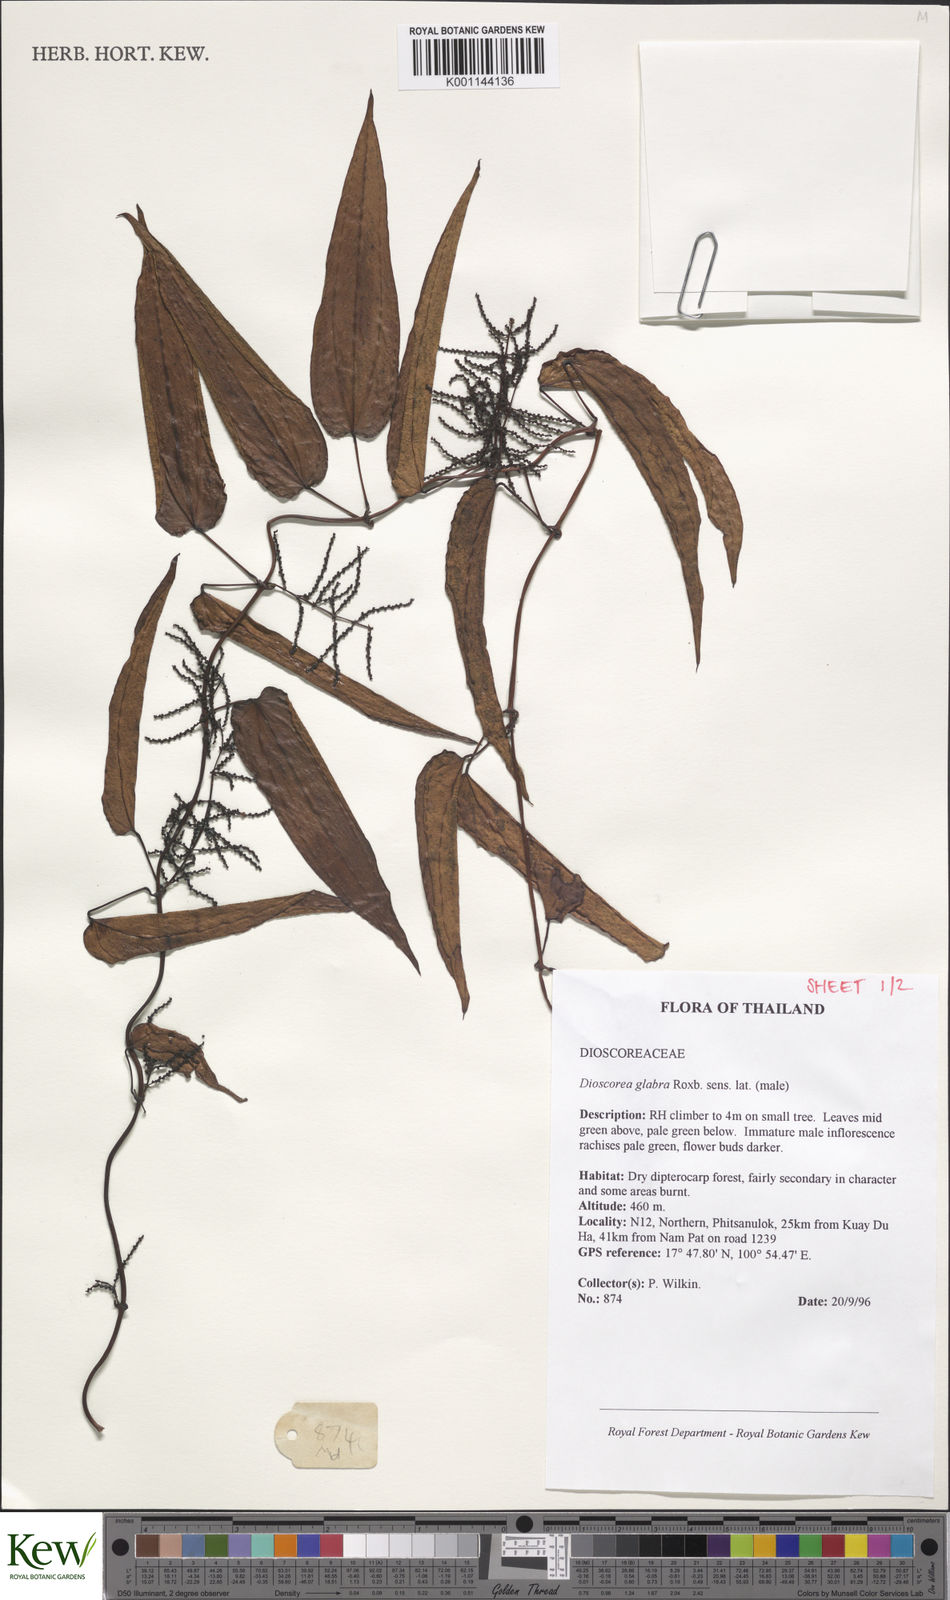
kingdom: Plantae
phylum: Tracheophyta
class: Liliopsida
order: Dioscoreales
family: Dioscoreaceae
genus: Dioscorea
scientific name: Dioscorea glabra
